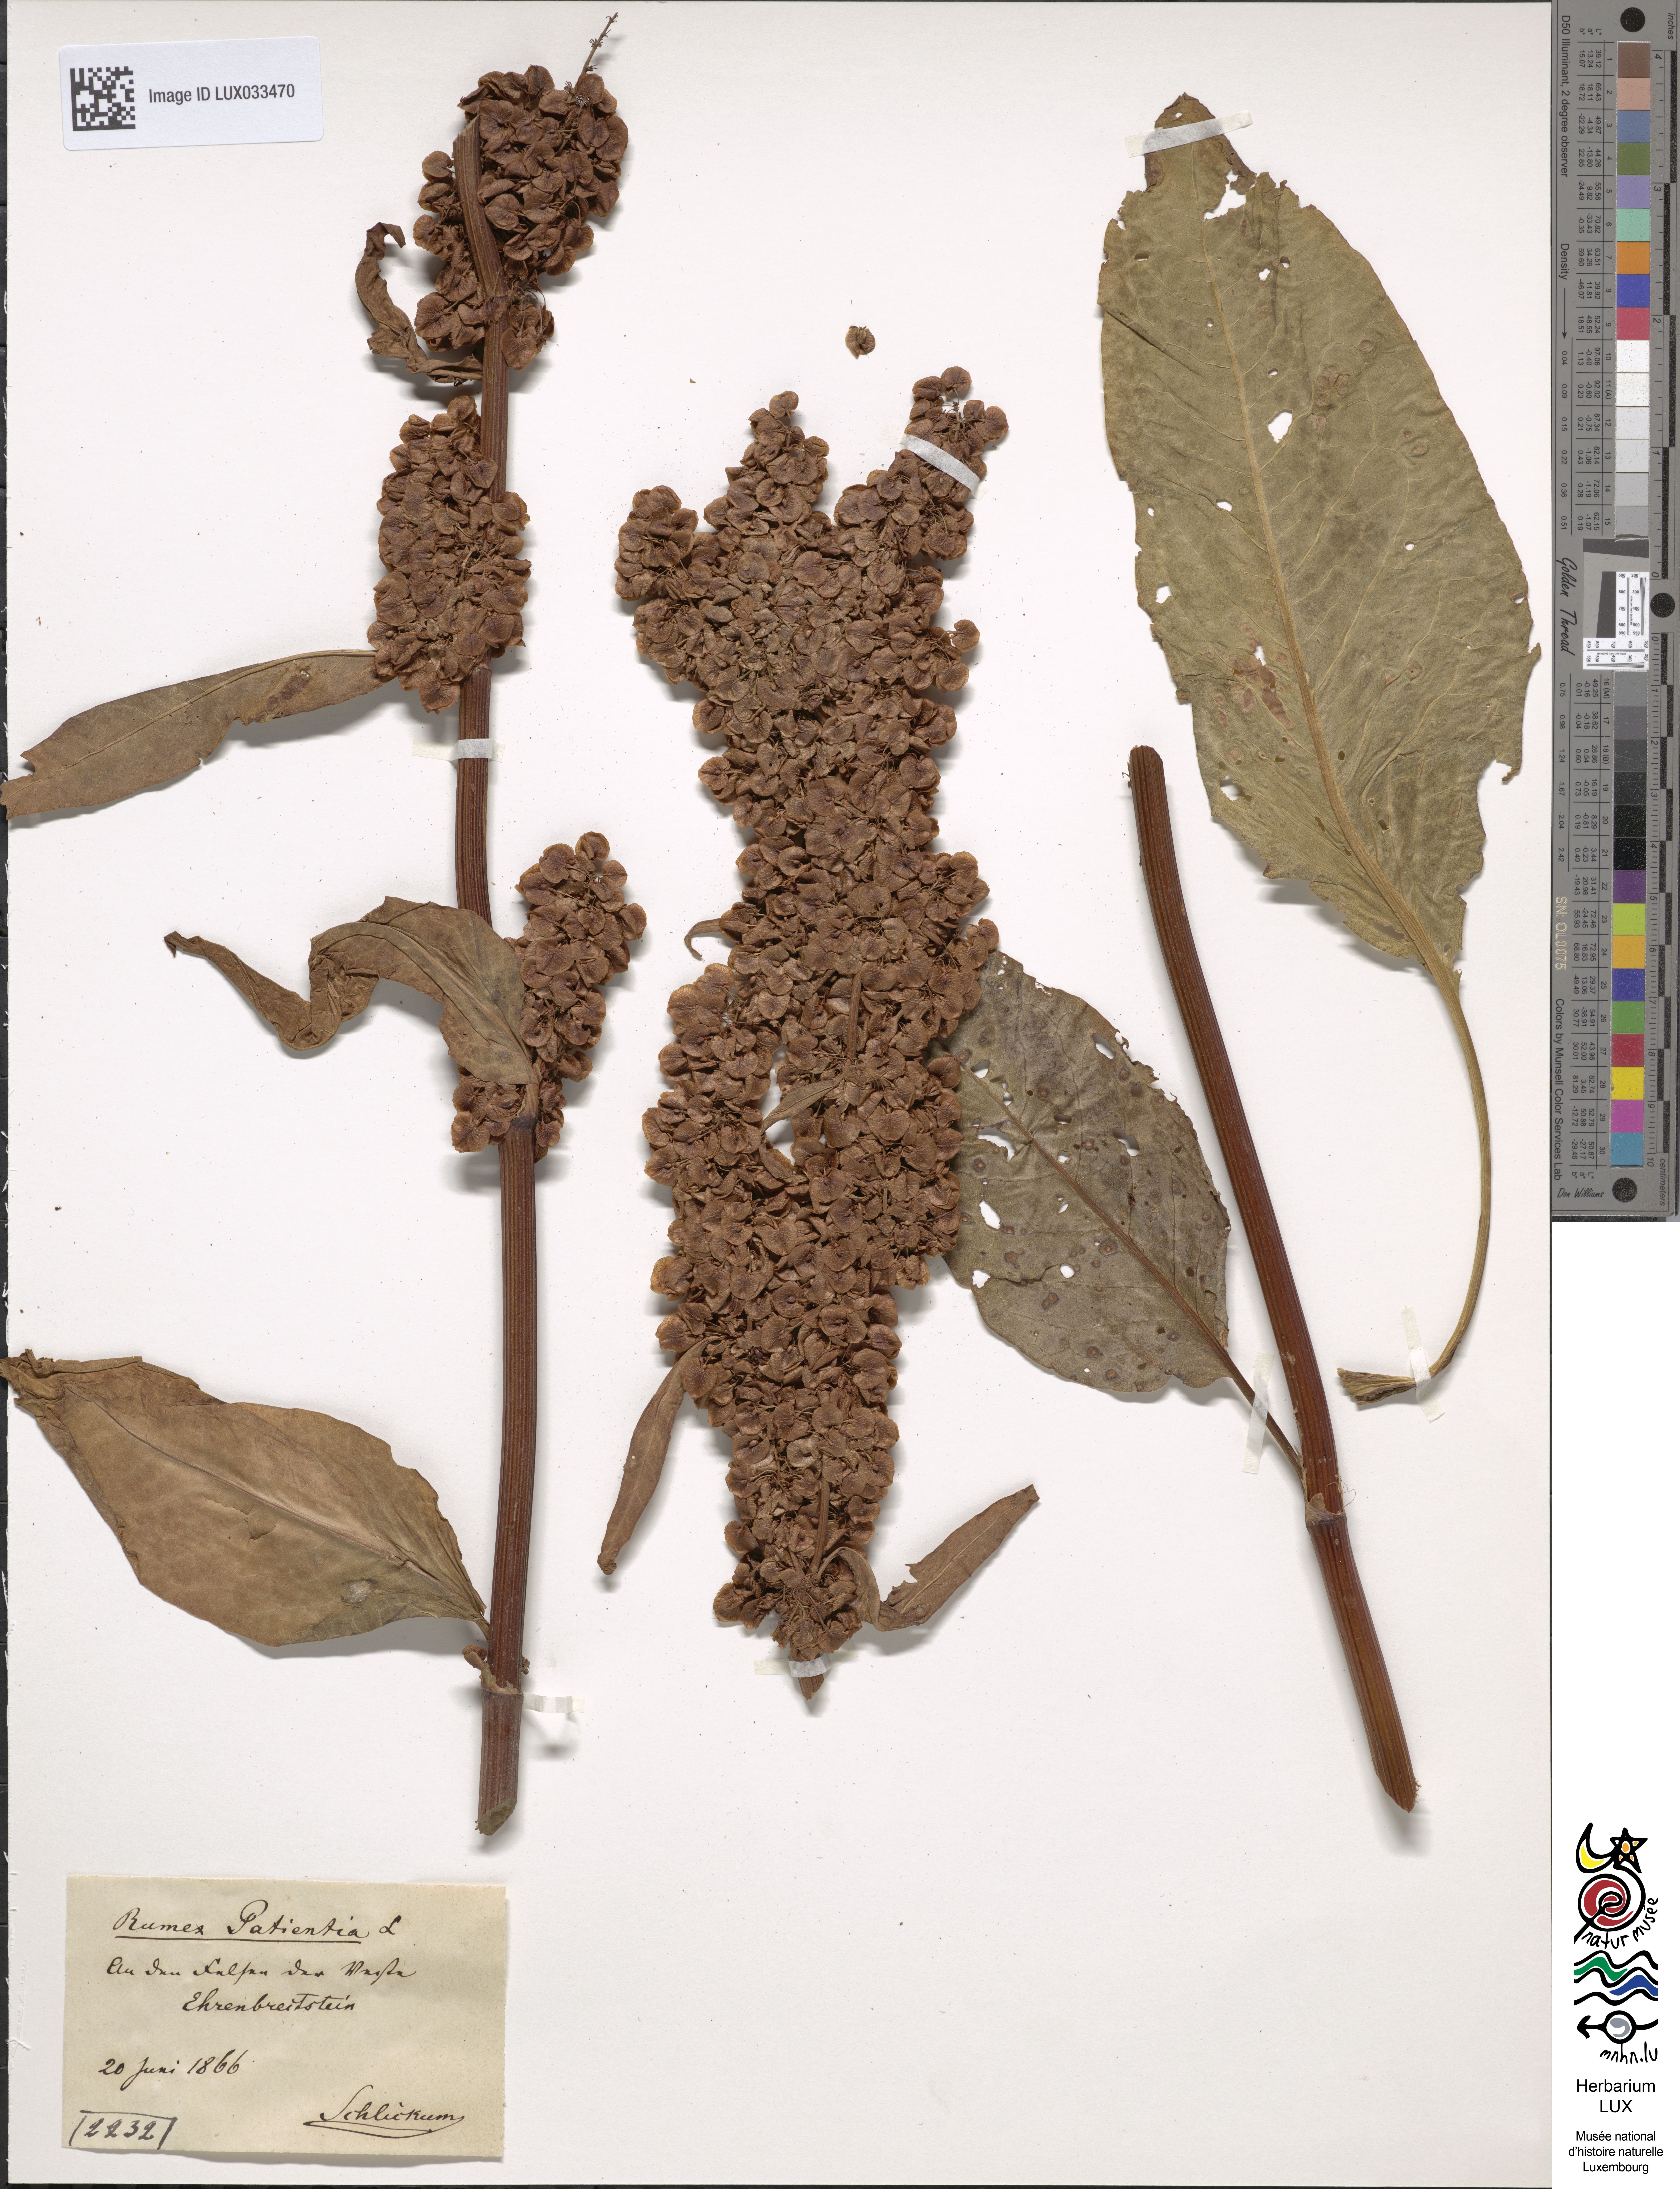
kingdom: Plantae
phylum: Tracheophyta
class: Magnoliopsida
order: Caryophyllales
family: Polygonaceae
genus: Rumex
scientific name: Rumex patientia
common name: Patience dock
